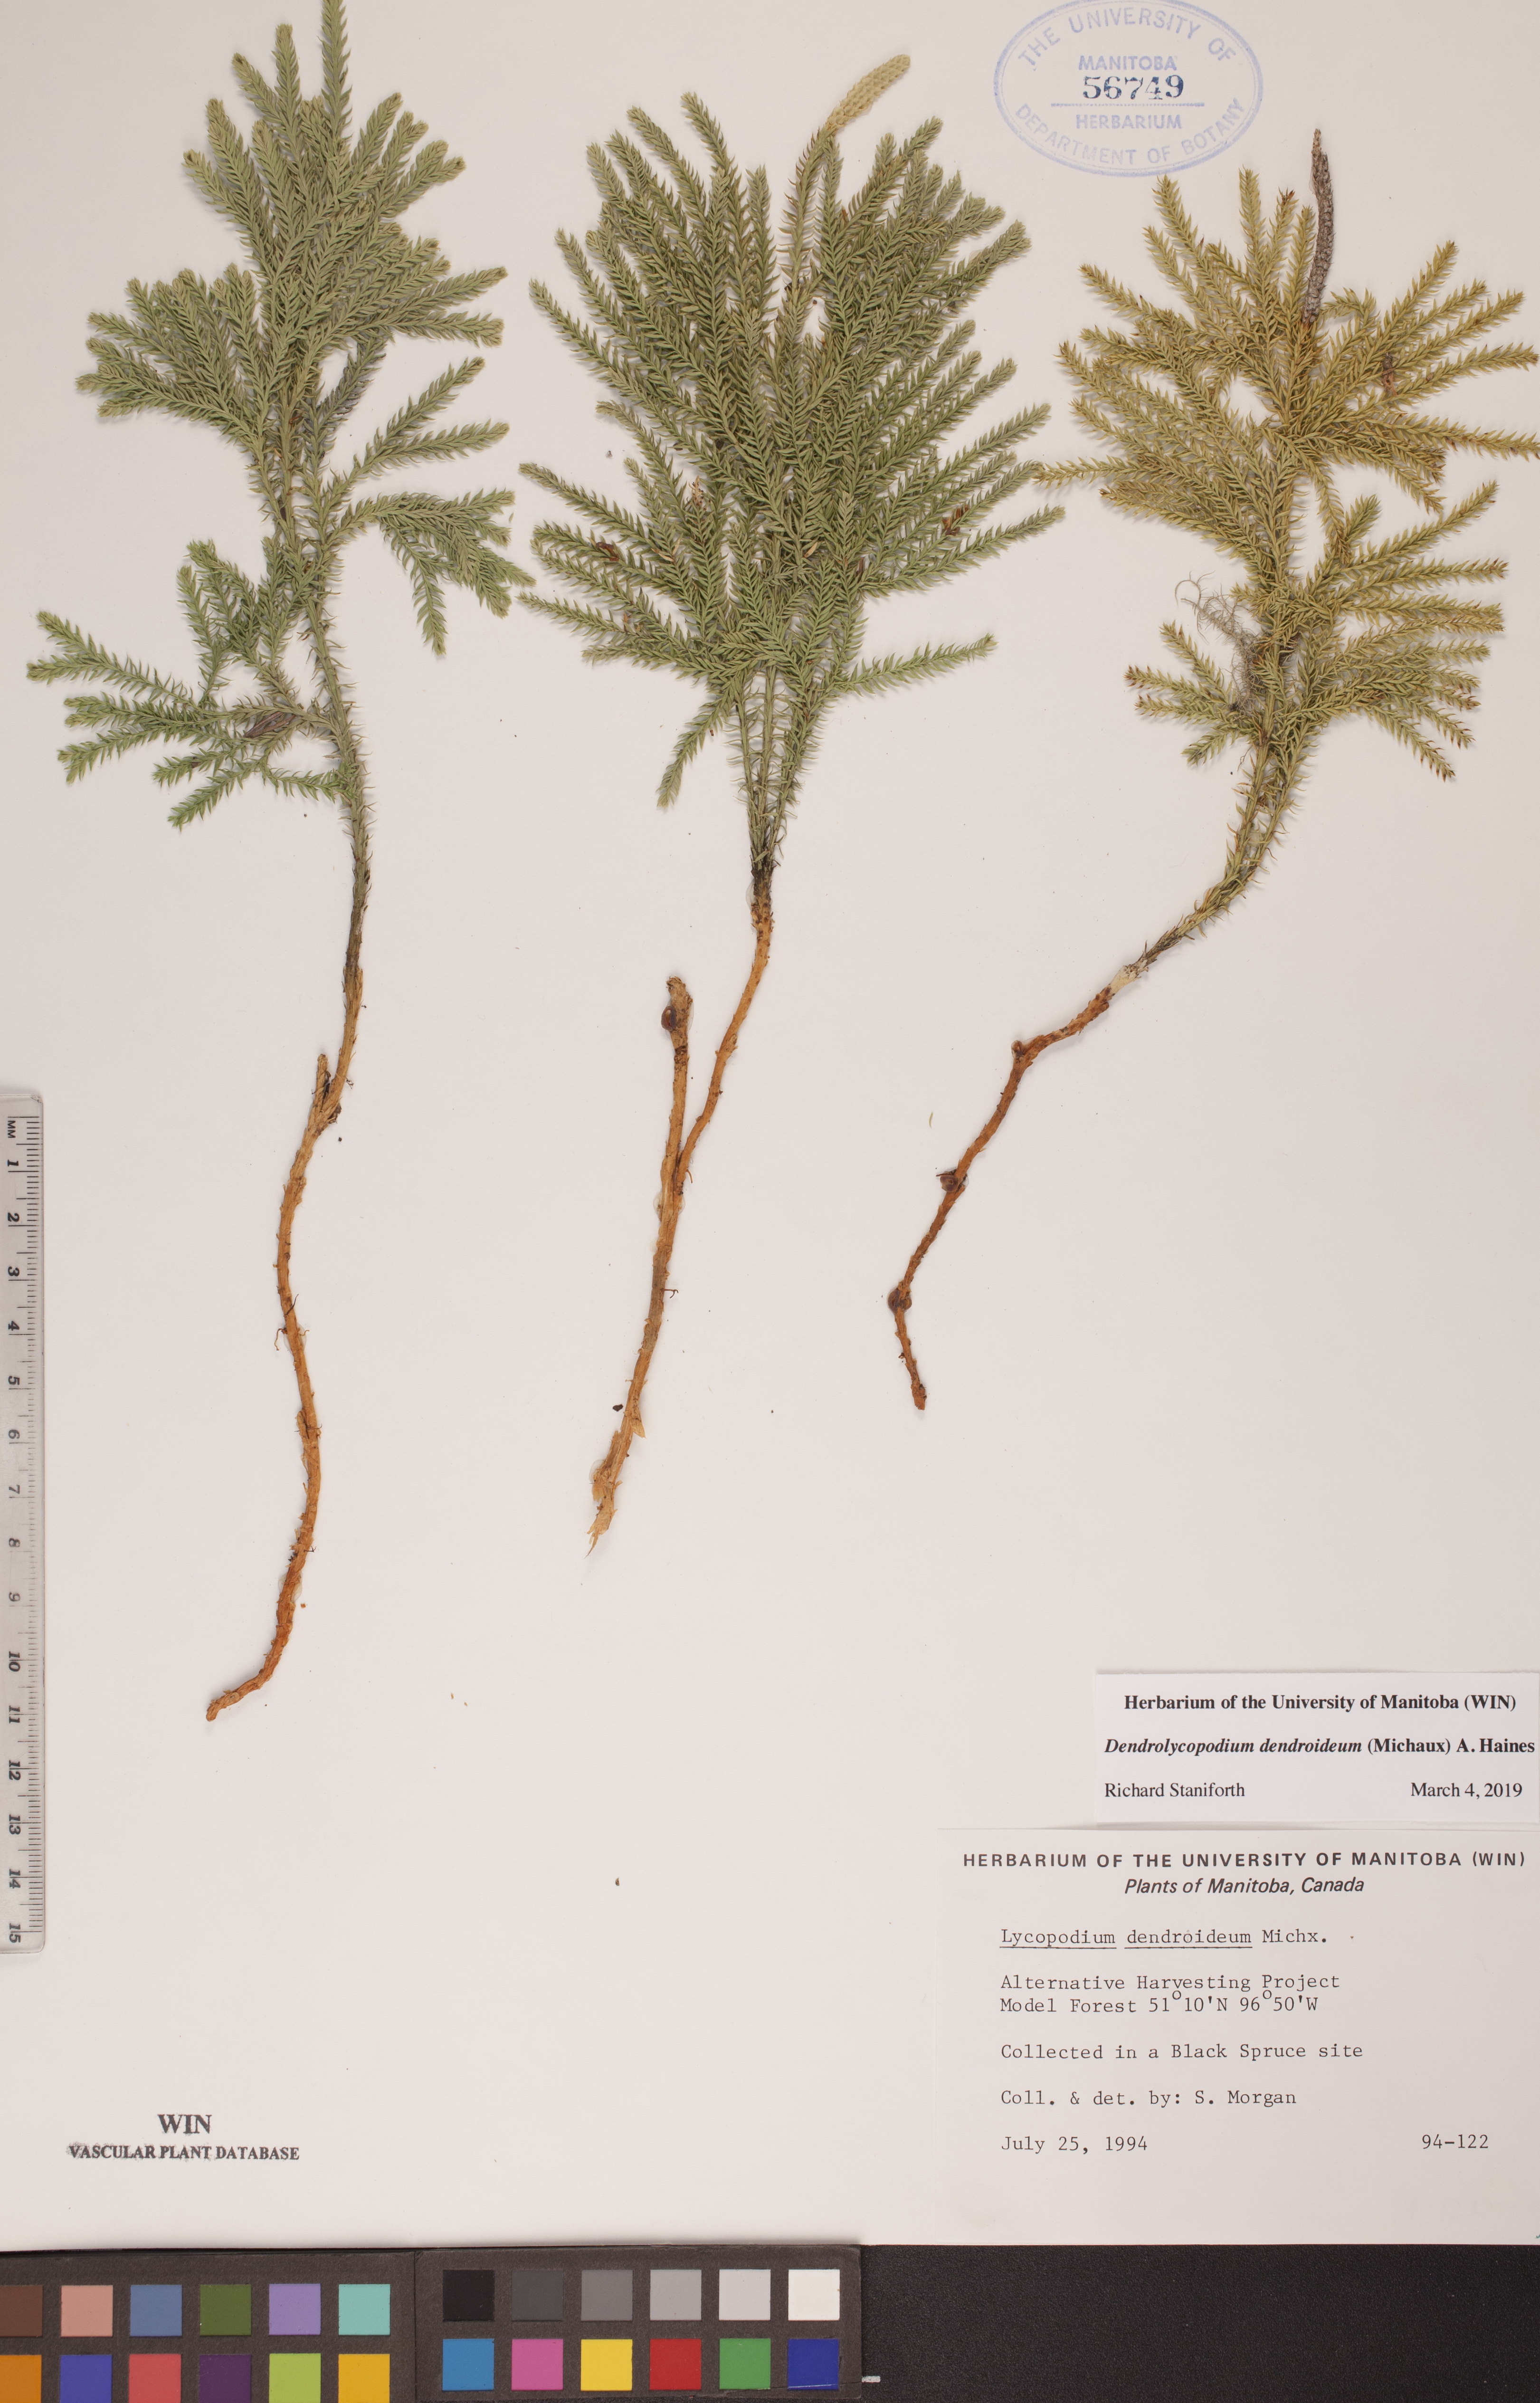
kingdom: Plantae
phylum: Tracheophyta
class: Lycopodiopsida
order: Lycopodiales
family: Lycopodiaceae
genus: Dendrolycopodium
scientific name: Dendrolycopodium dendroideum
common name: Northern tree-clubmoss
